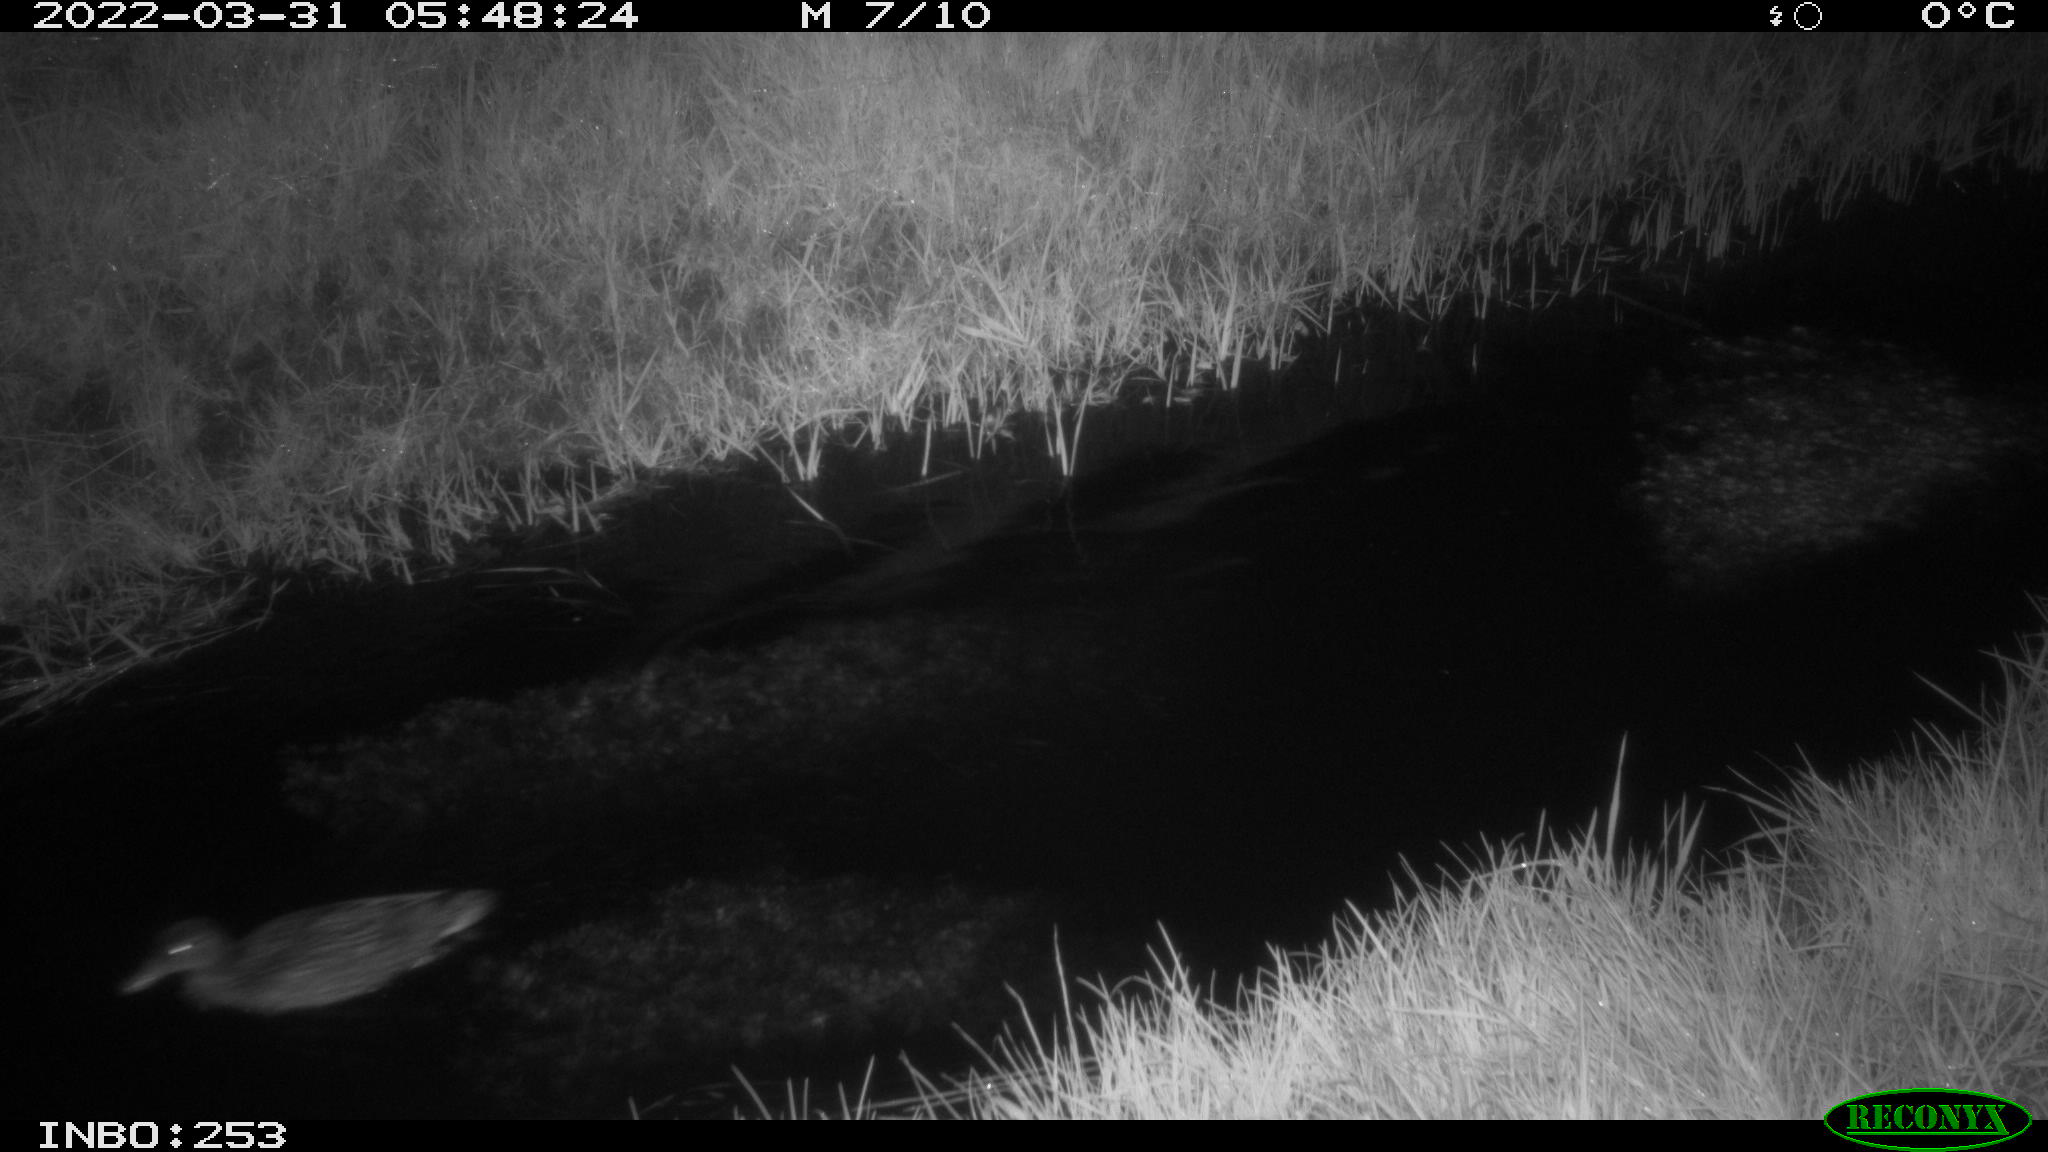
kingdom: Animalia
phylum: Chordata
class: Aves
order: Anseriformes
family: Anatidae
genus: Anas
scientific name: Anas platyrhynchos
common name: Mallard
